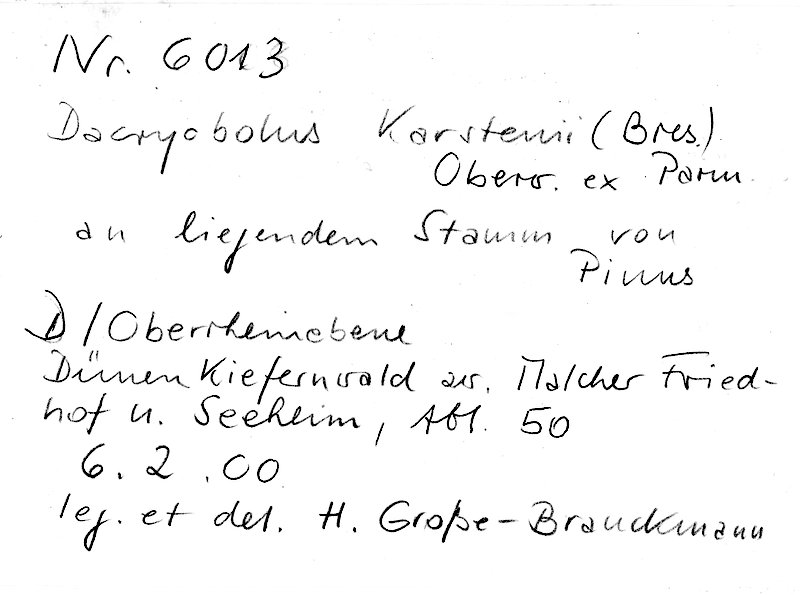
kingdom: Plantae
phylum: Tracheophyta
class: Pinopsida
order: Pinales
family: Pinaceae
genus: Pinus
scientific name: Pinus
